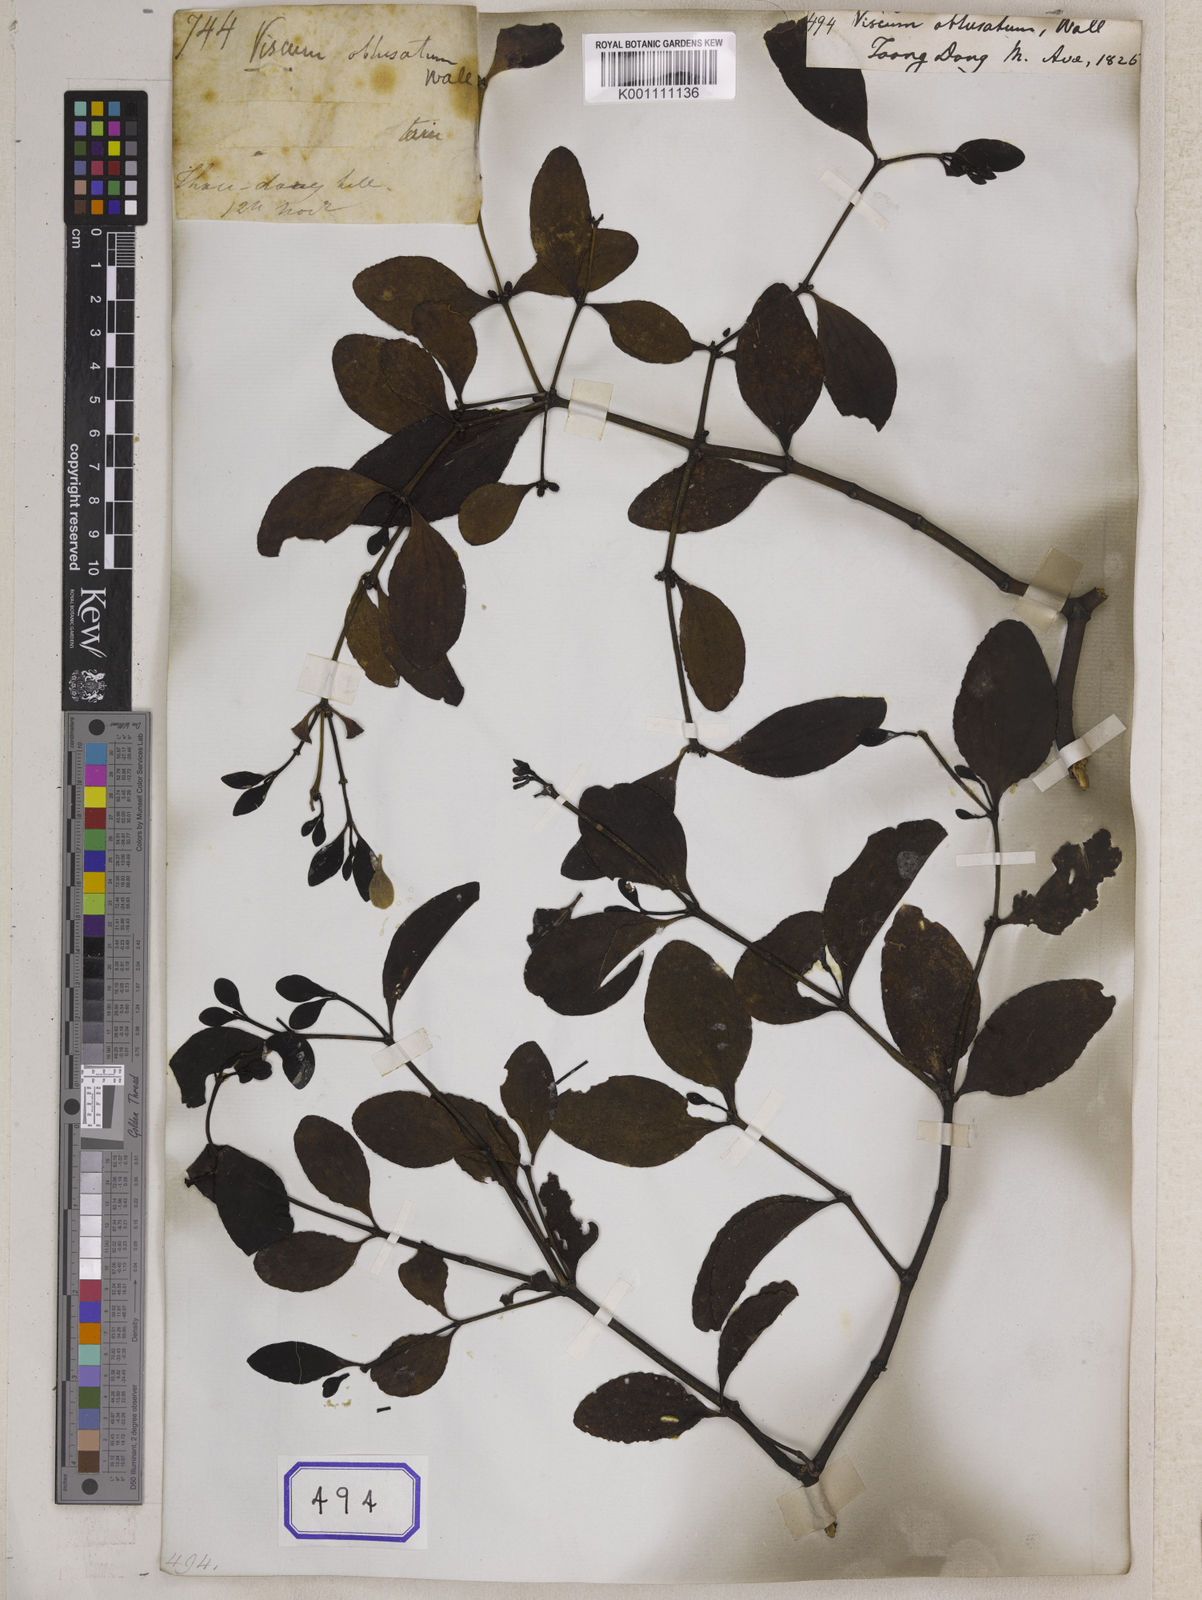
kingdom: Plantae
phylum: Tracheophyta
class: Magnoliopsida
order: Santalales
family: Viscaceae
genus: Viscum
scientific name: Viscum
